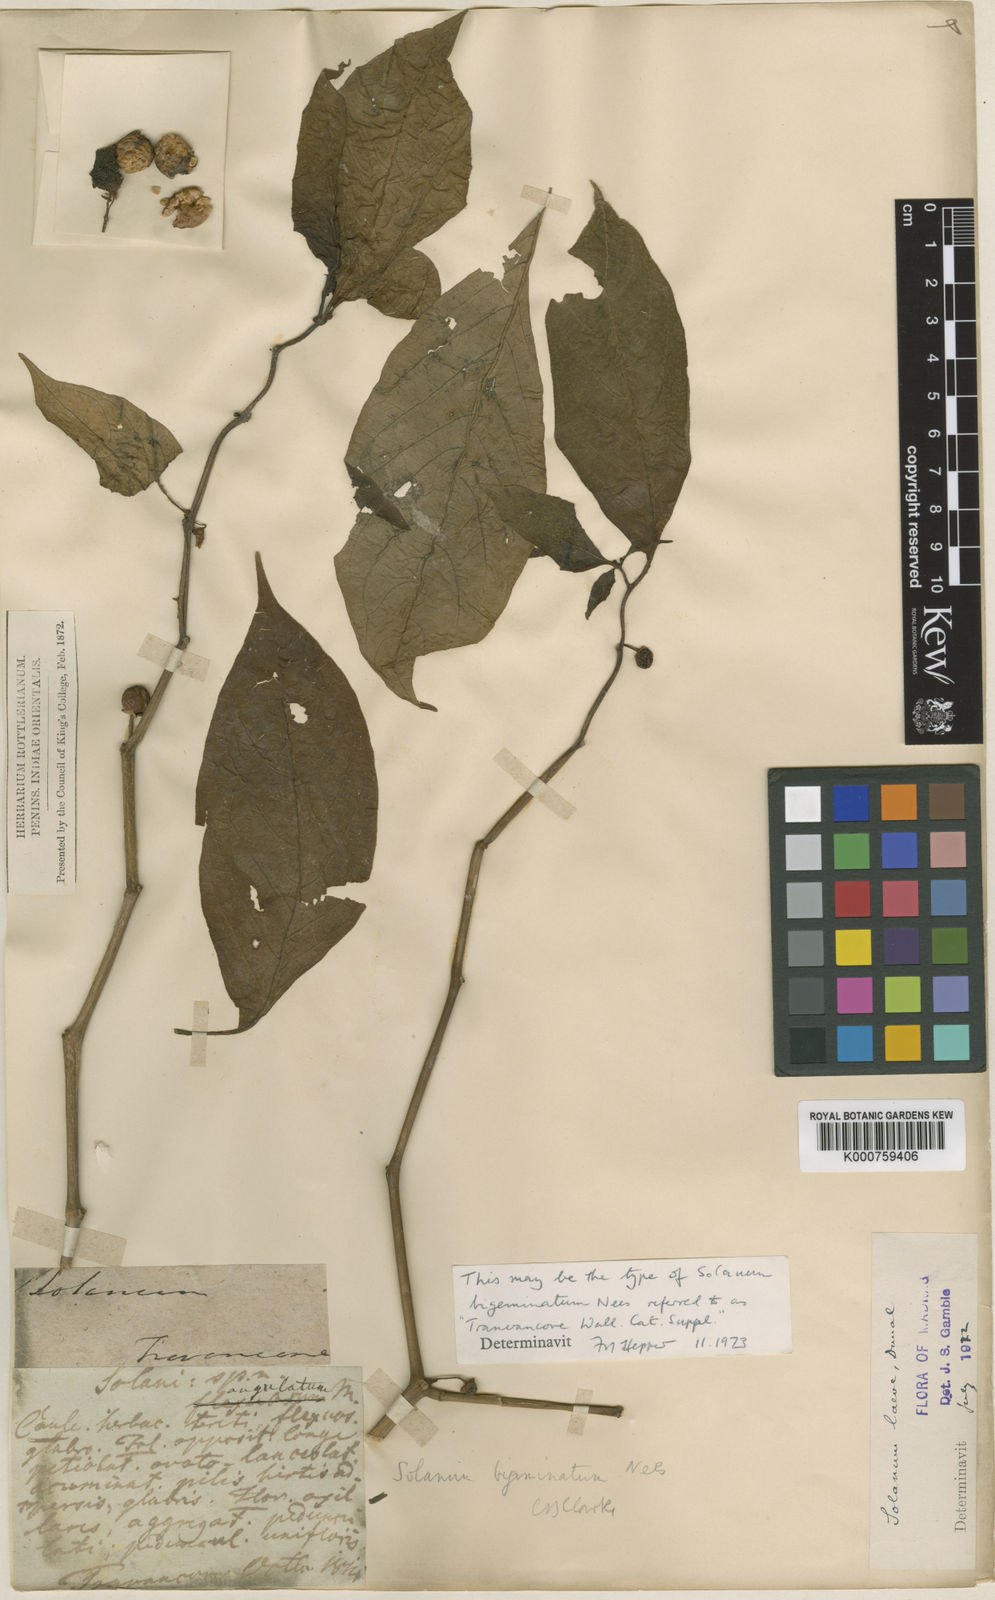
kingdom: Plantae
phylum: Tracheophyta
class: Magnoliopsida
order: Solanales
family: Solanaceae
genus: Lycianthes
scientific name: Lycianthes bigeminata
